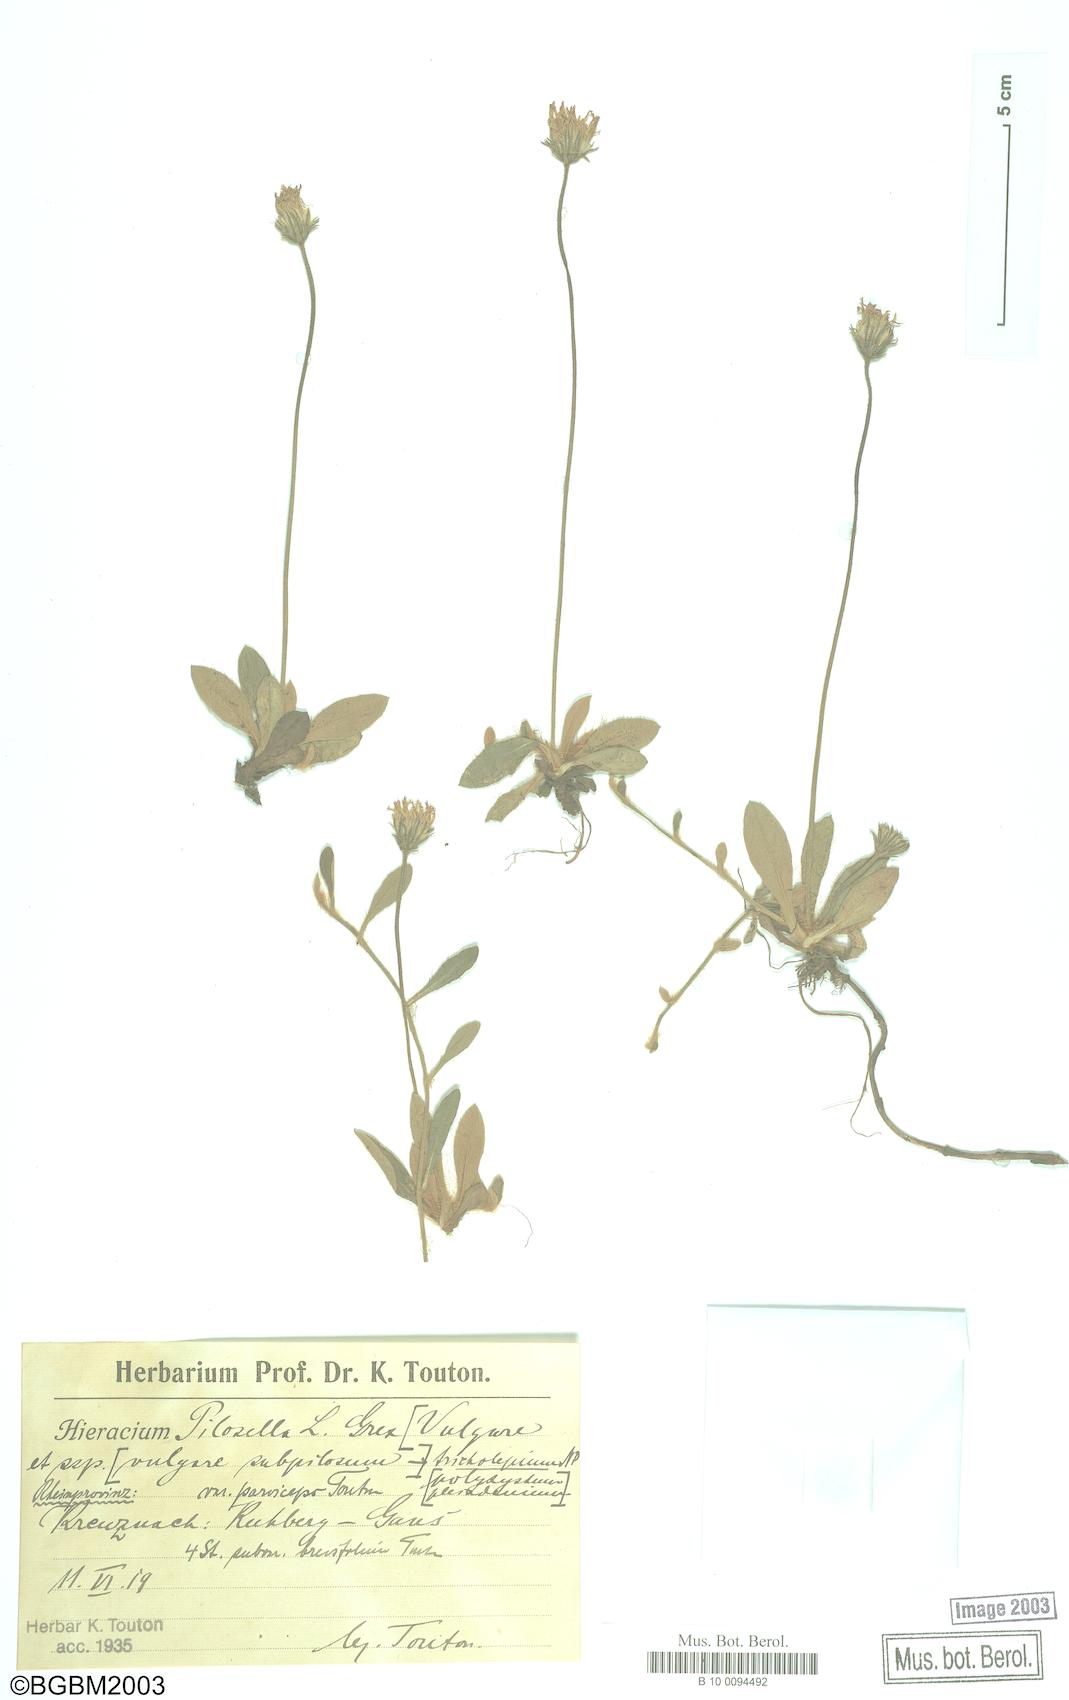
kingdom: Plantae
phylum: Tracheophyta
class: Magnoliopsida
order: Asterales
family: Asteraceae
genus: Pilosella
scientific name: Pilosella officinarum
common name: Mouse-ear hawkweed
